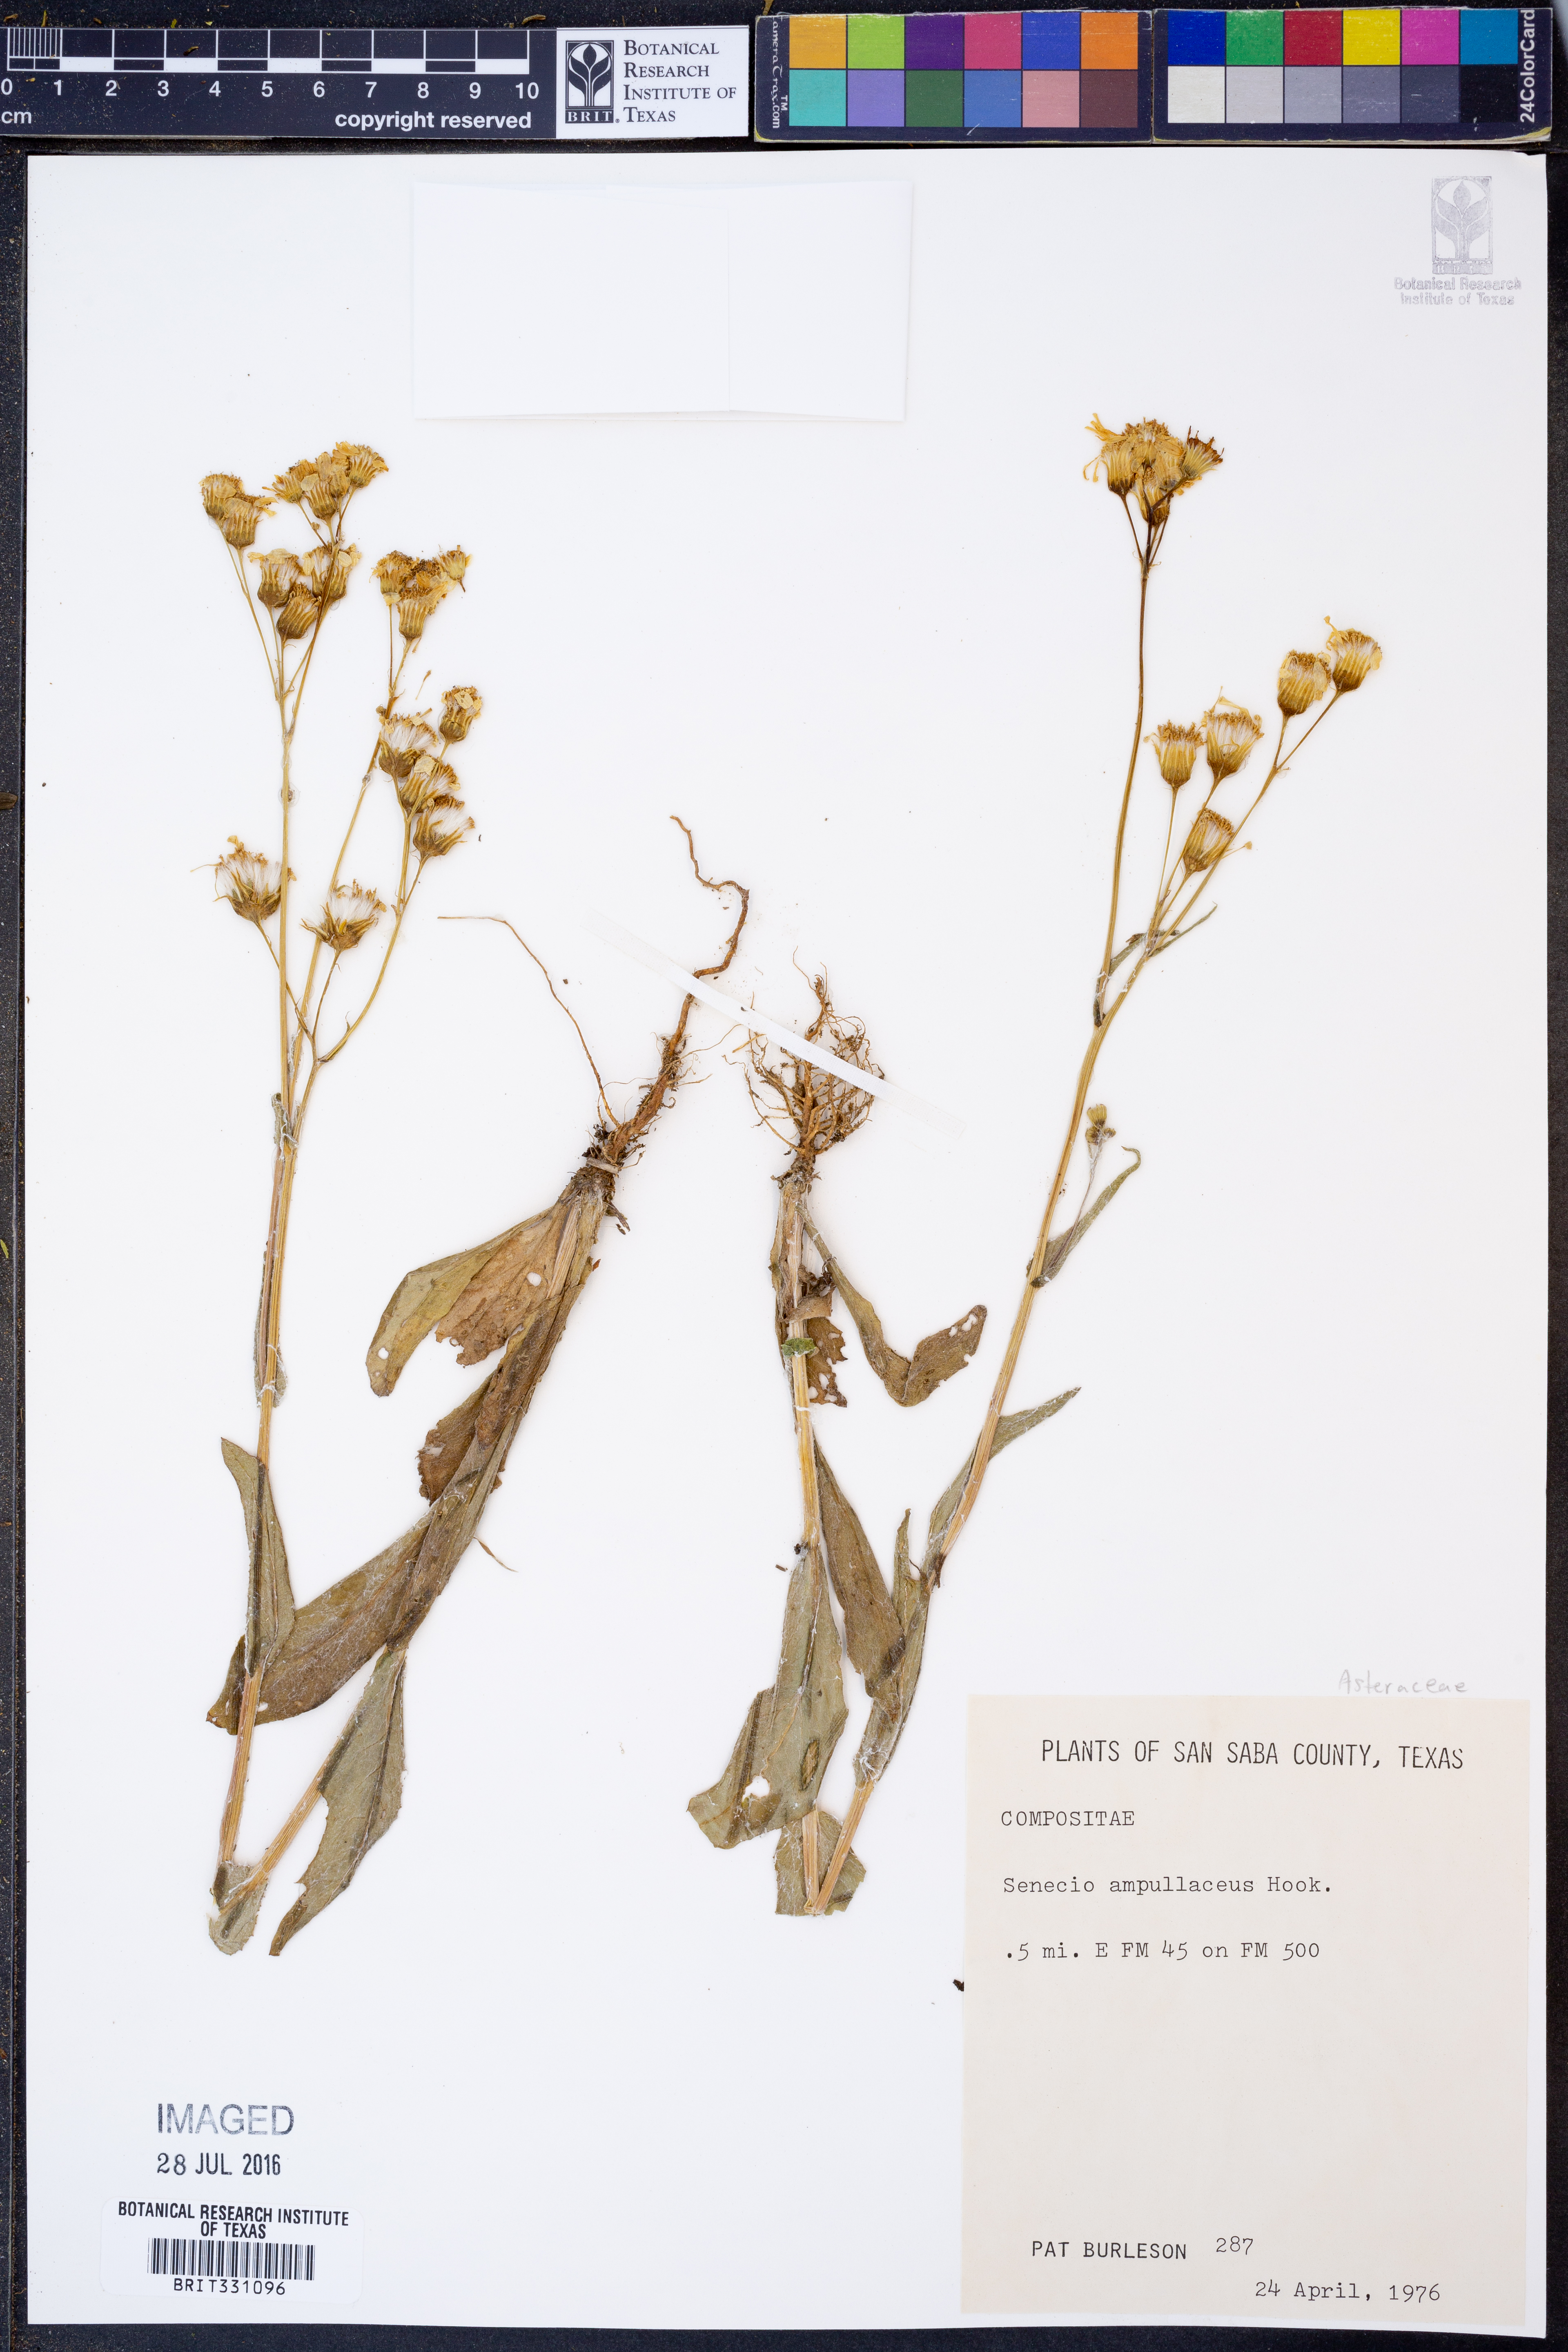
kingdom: Plantae
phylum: Tracheophyta
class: Magnoliopsida
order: Asterales
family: Asteraceae
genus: Senecio
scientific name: Senecio ampullaceus
